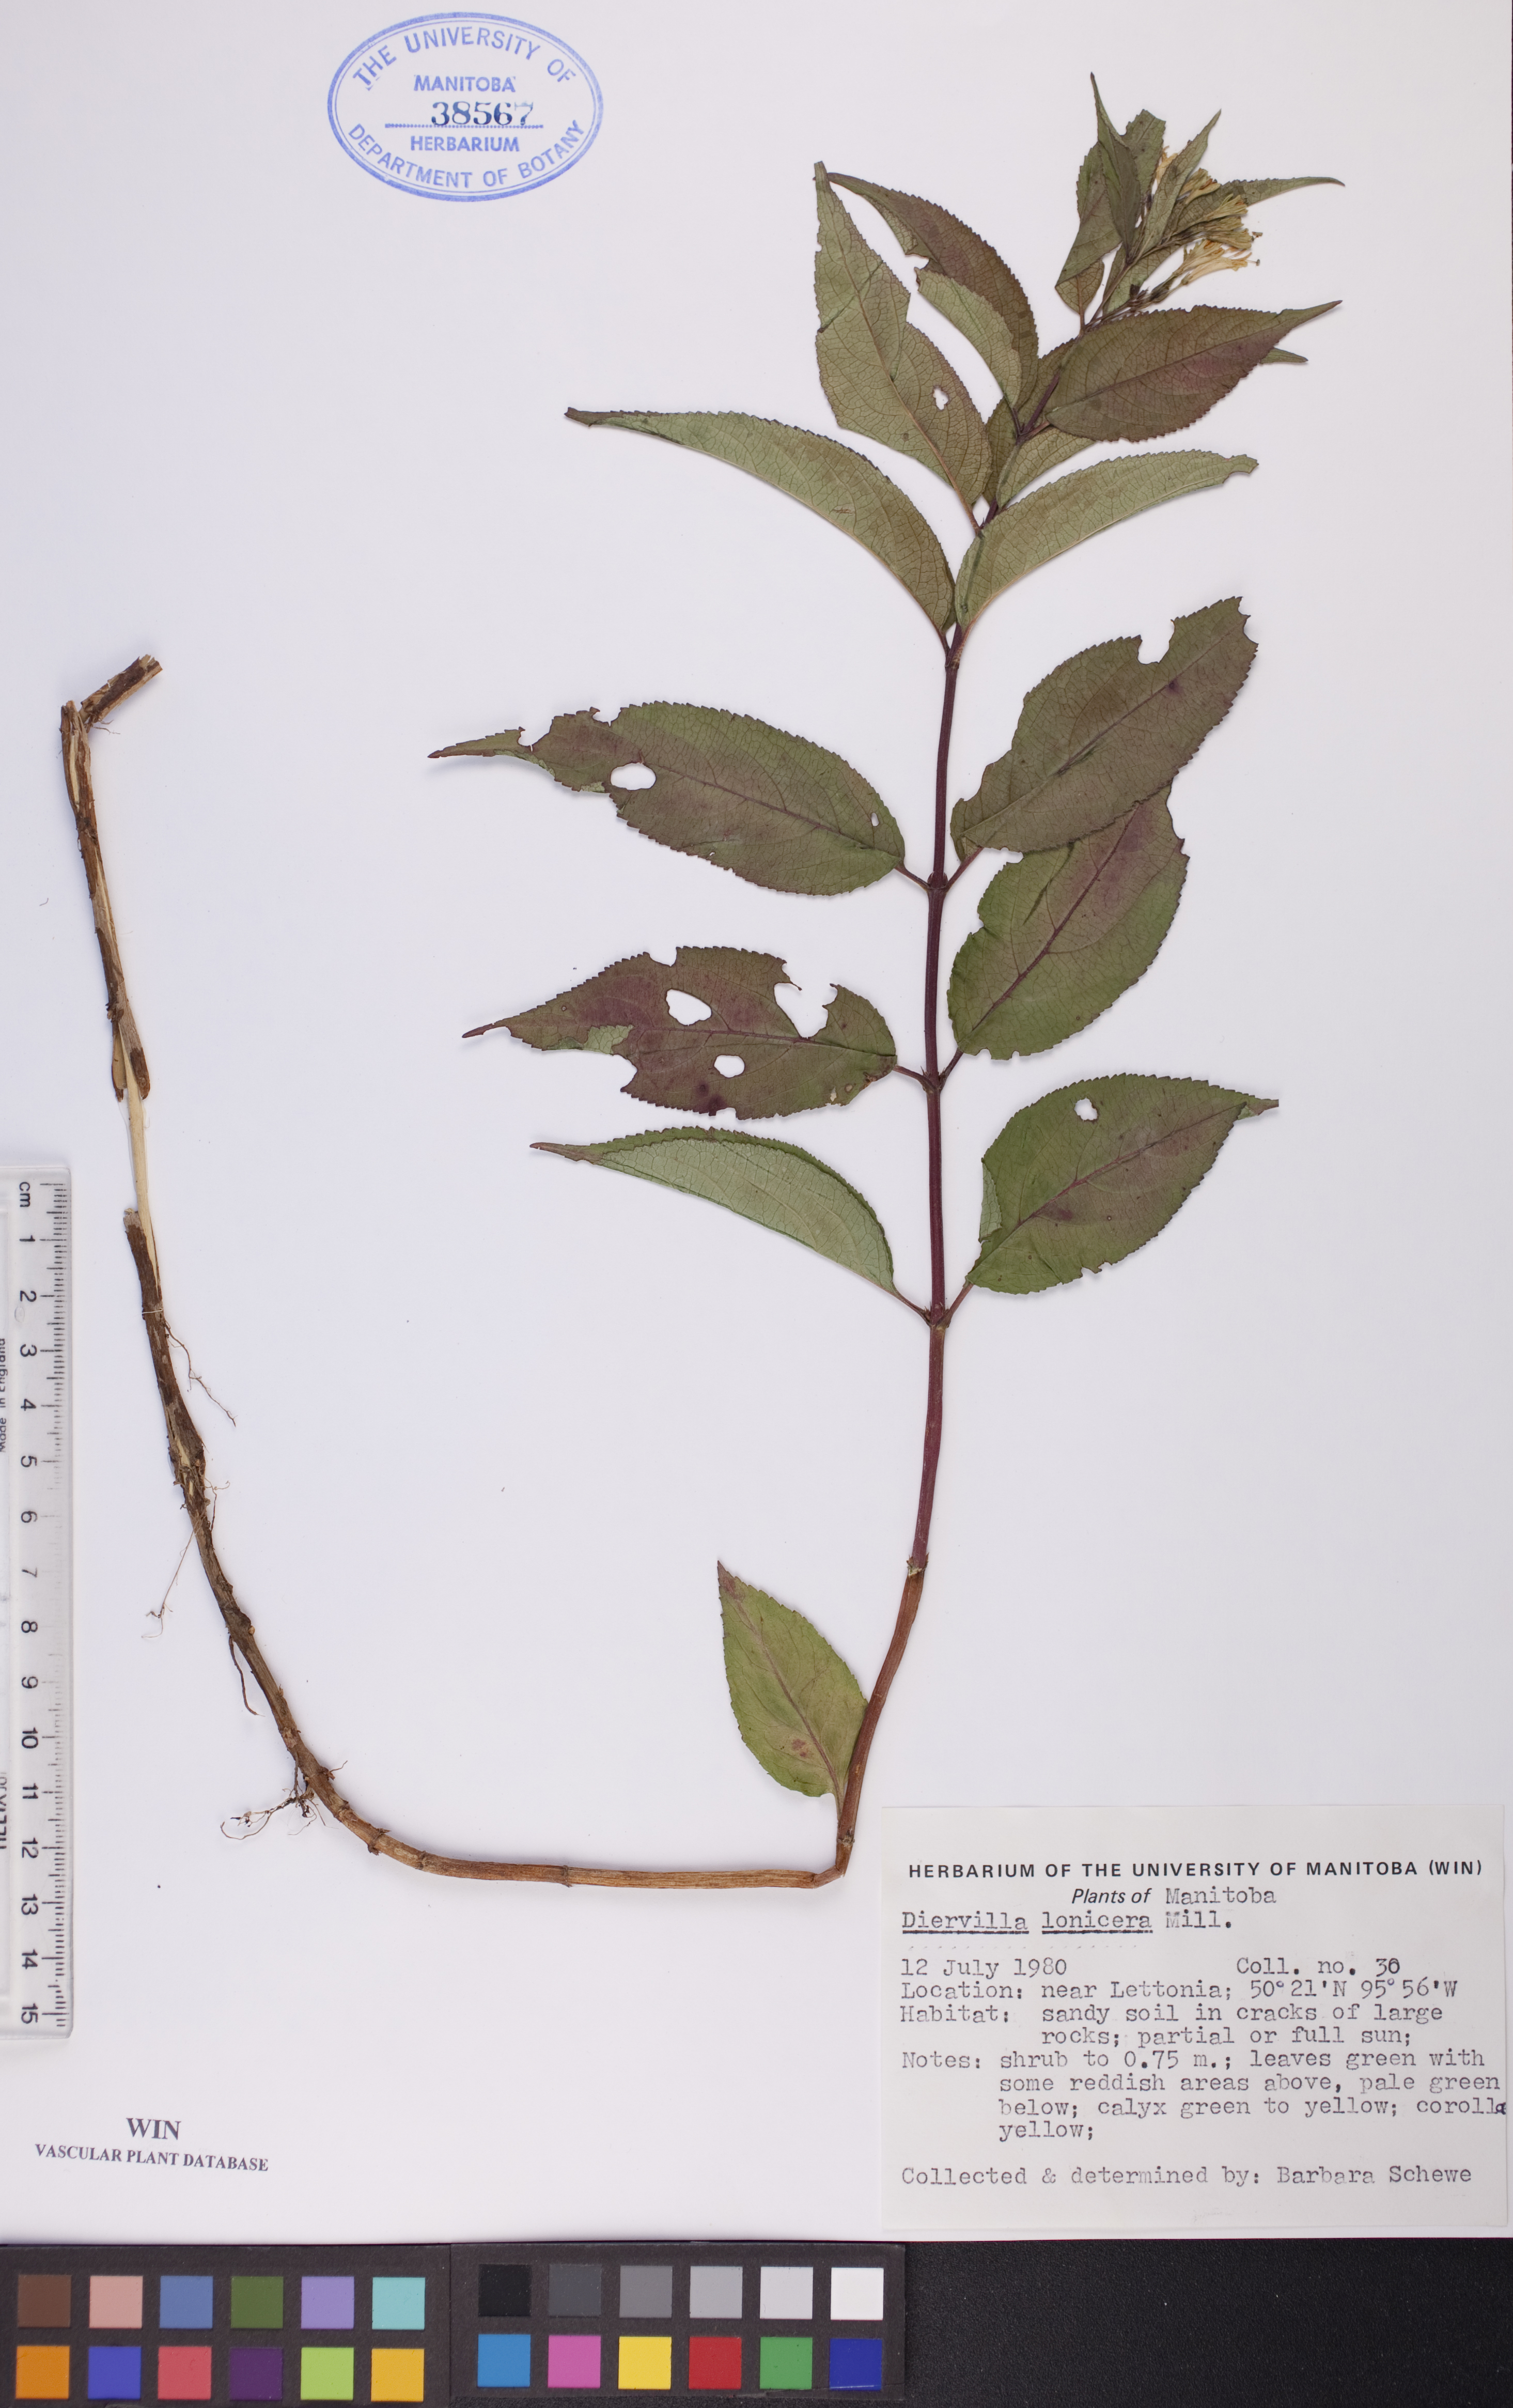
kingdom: Plantae
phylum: Tracheophyta
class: Magnoliopsida
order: Dipsacales
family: Caprifoliaceae
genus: Diervilla
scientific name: Diervilla lonicera
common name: Bush-honeysuckle
